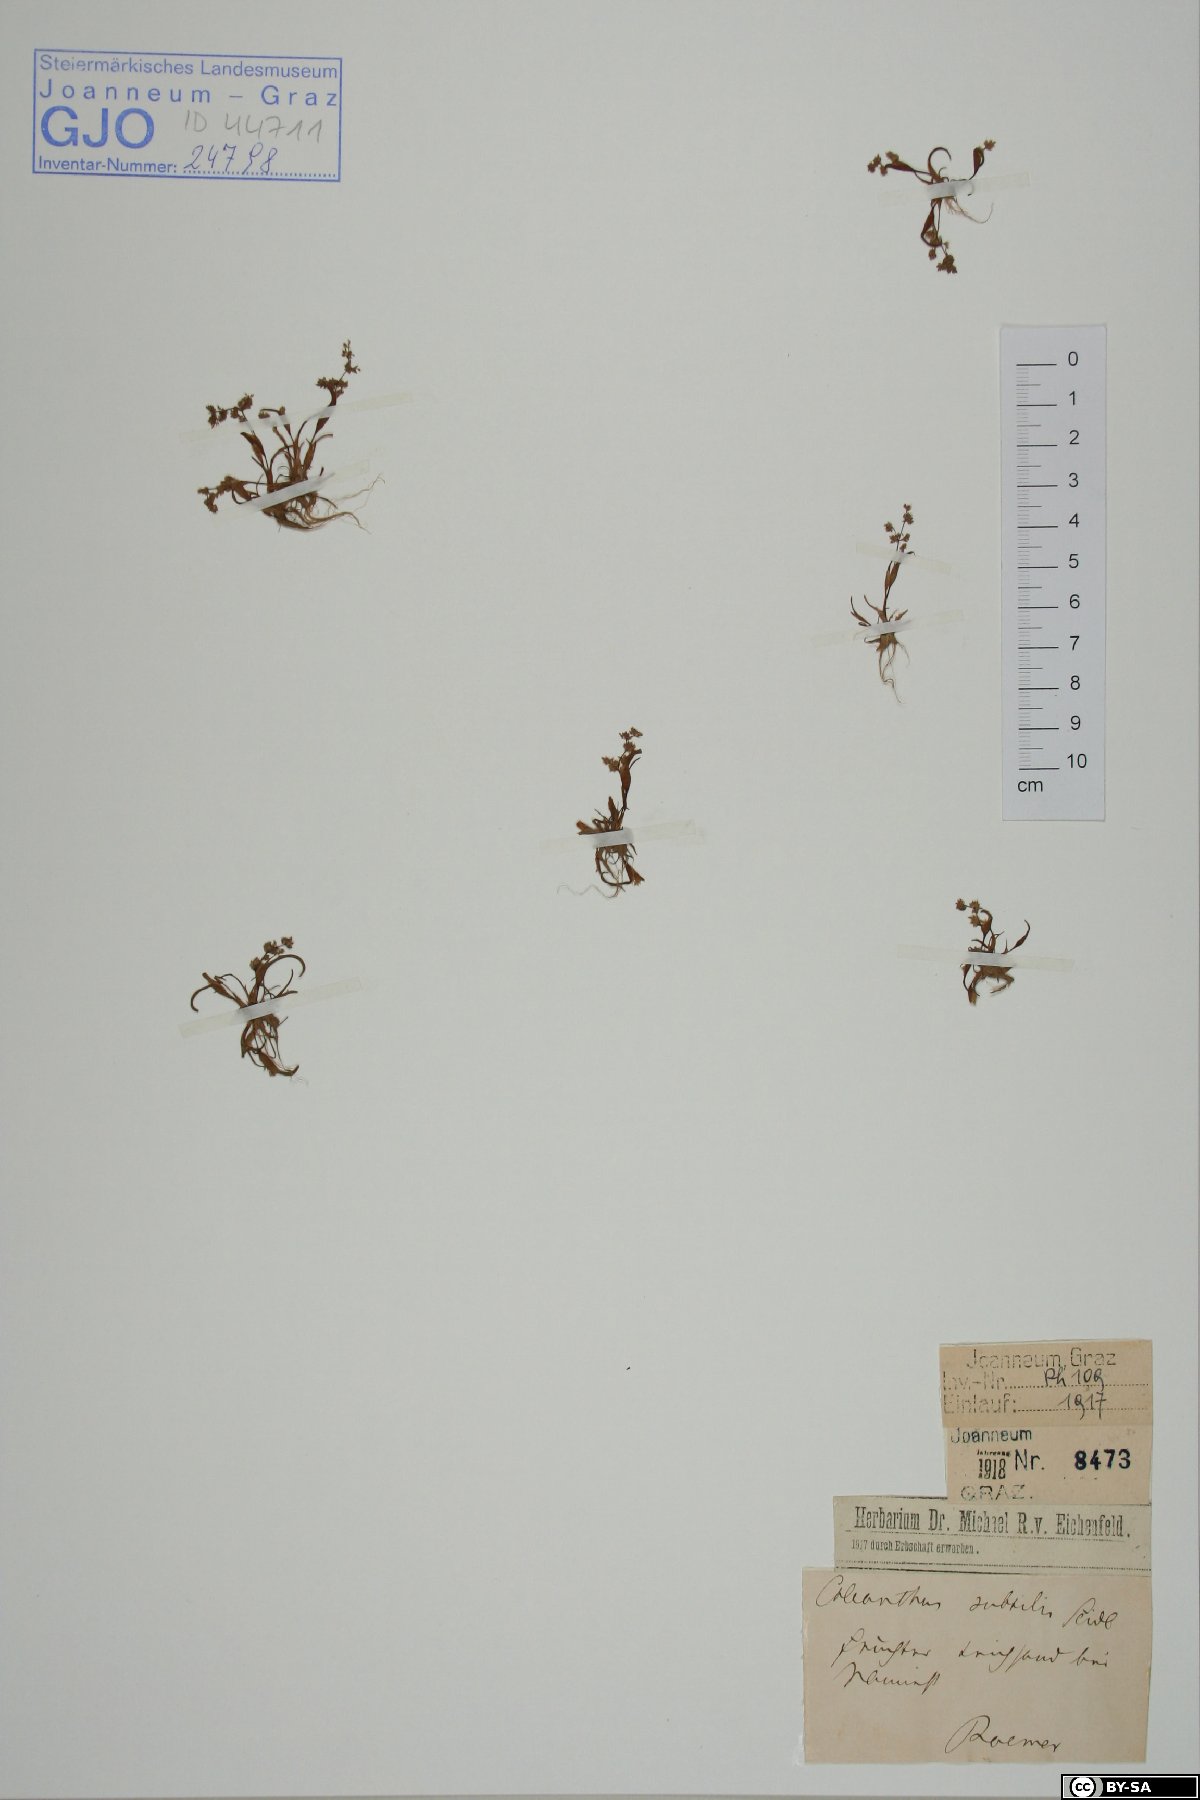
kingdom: Plantae
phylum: Tracheophyta
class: Liliopsida
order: Poales
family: Poaceae
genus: Coleanthus
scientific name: Coleanthus subtilis
